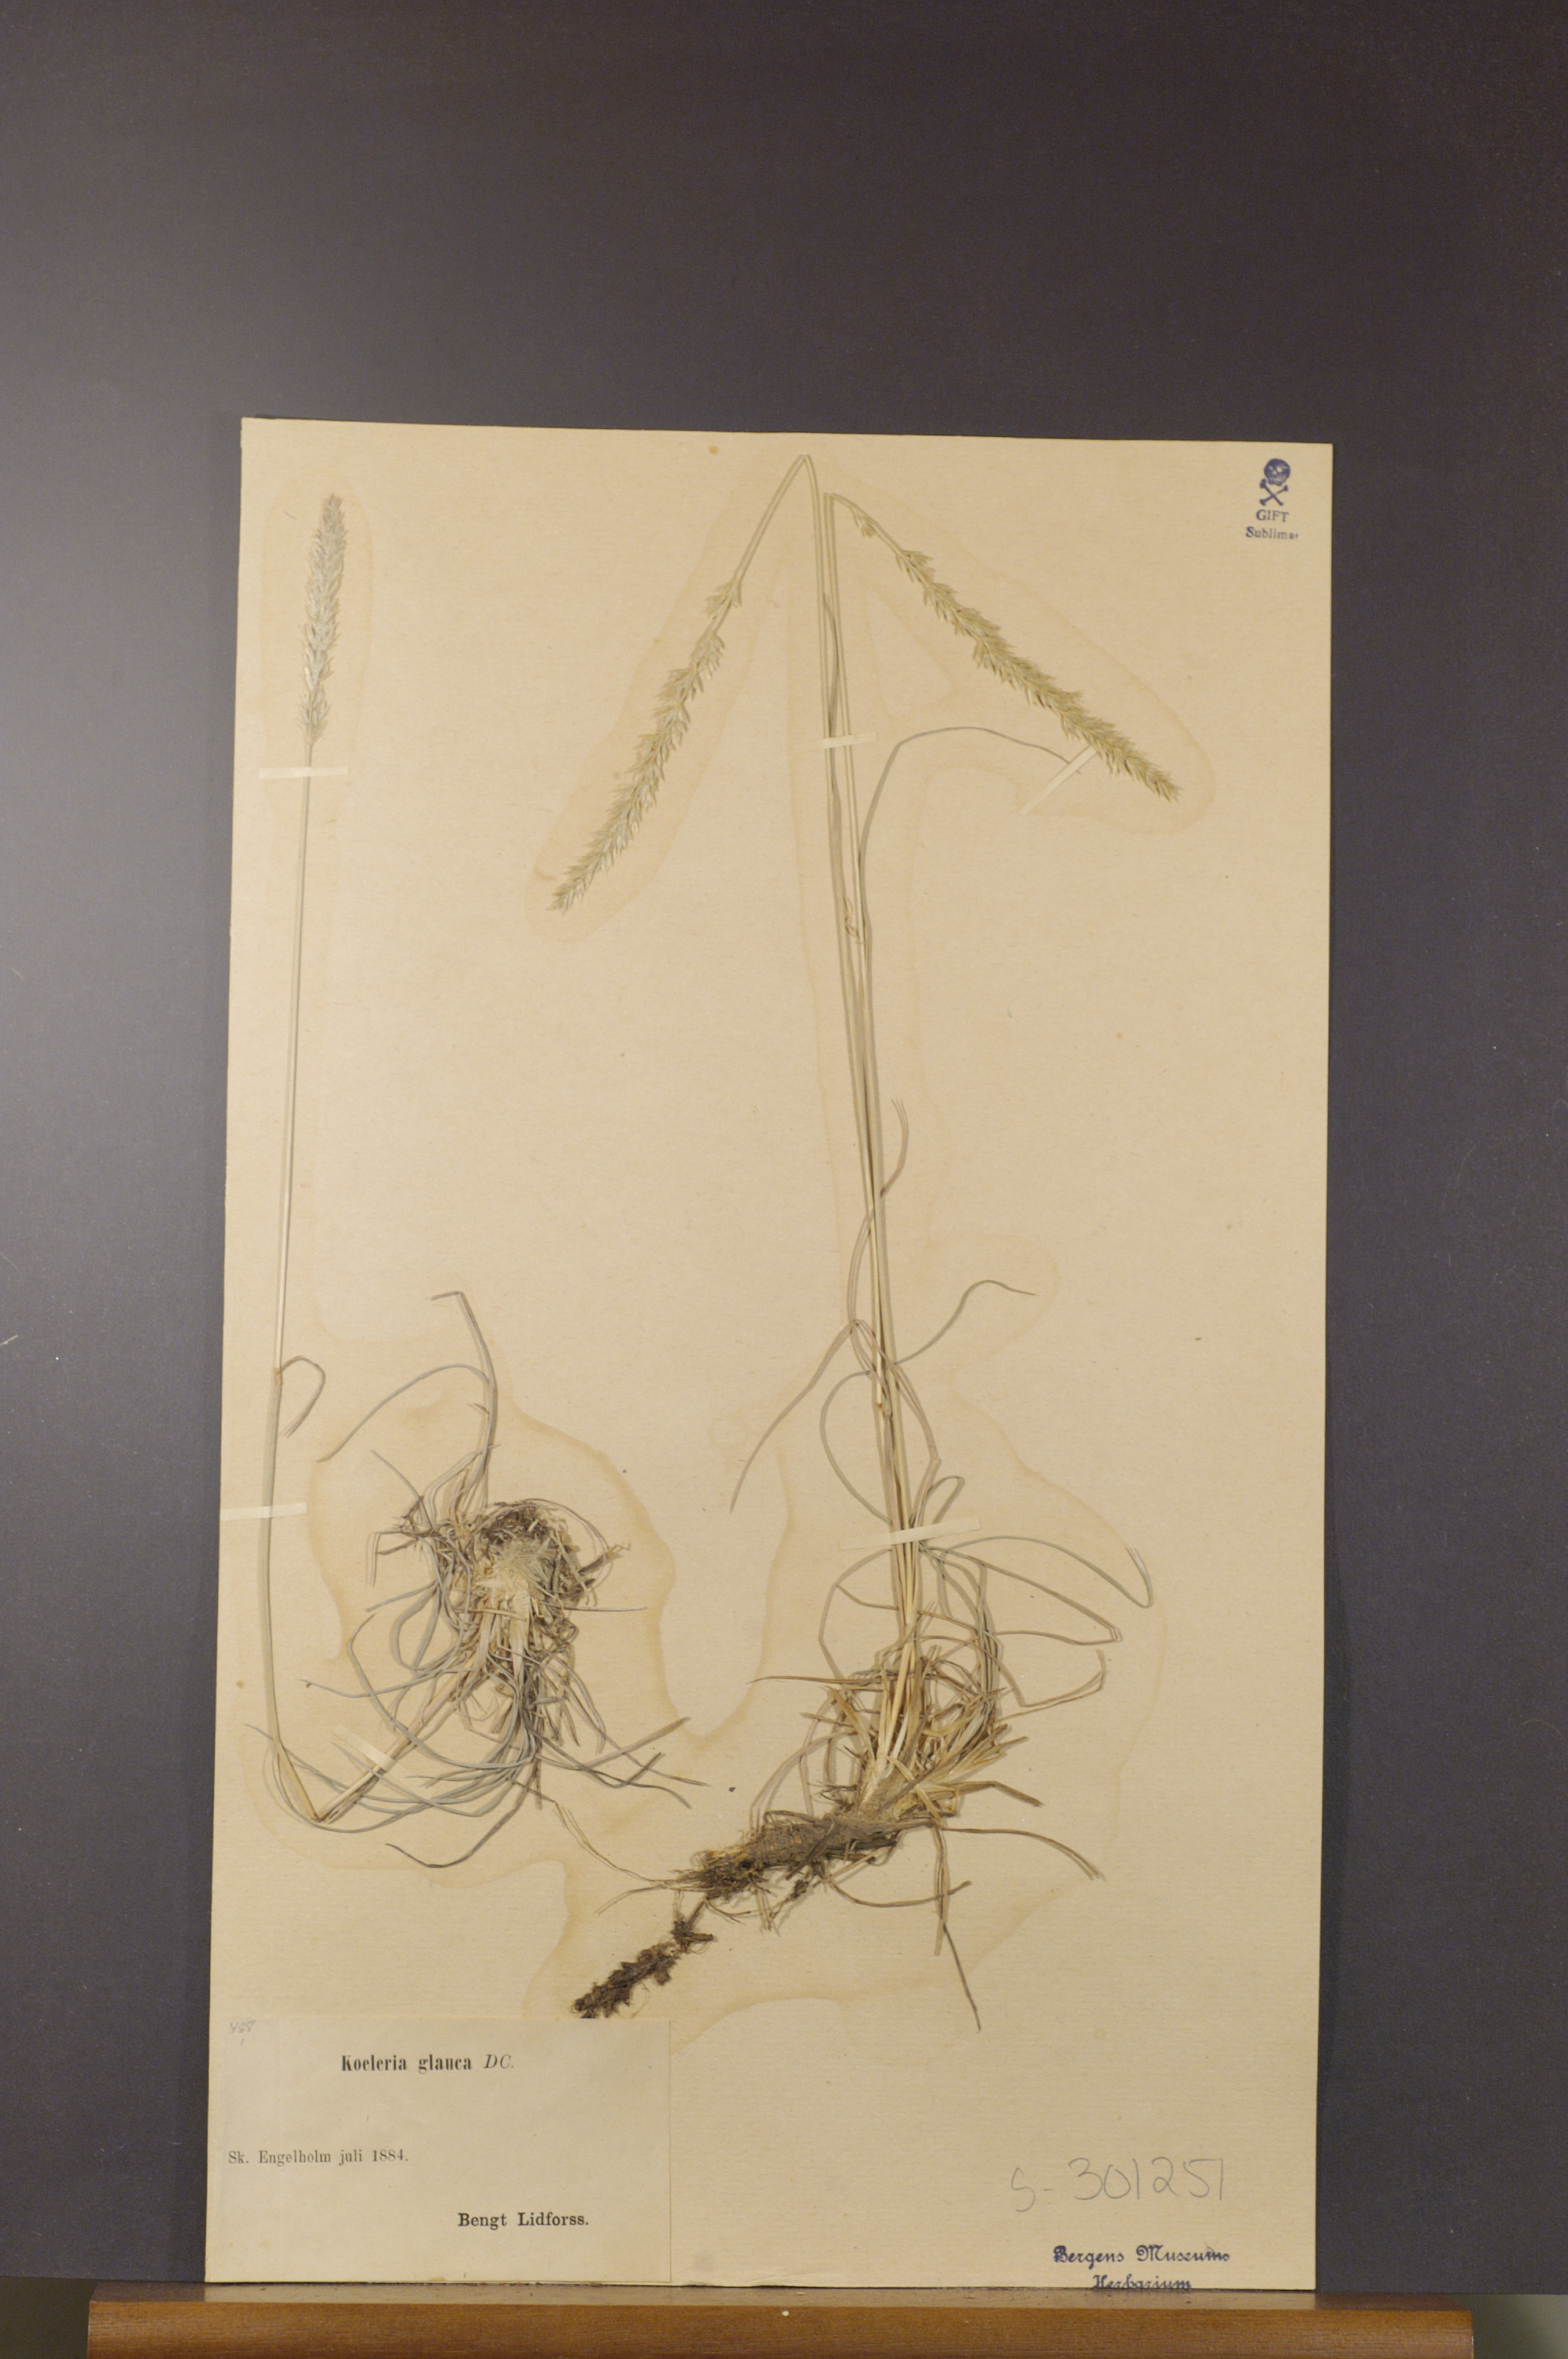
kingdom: Plantae
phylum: Tracheophyta
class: Liliopsida
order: Poales
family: Poaceae
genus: Koeleria
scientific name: Koeleria glauca
